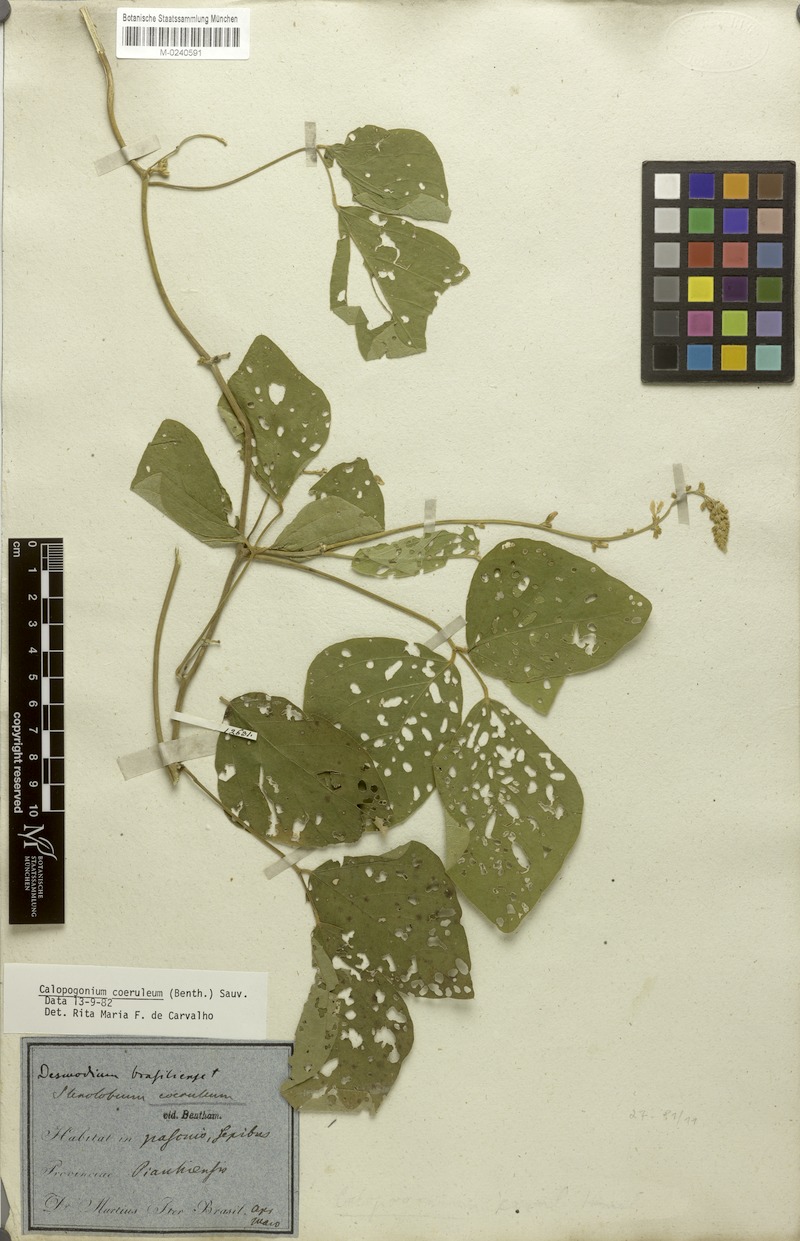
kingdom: Plantae
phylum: Tracheophyta
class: Magnoliopsida
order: Fabales
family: Fabaceae
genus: Calopogonium
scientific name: Calopogonium caeruleum
